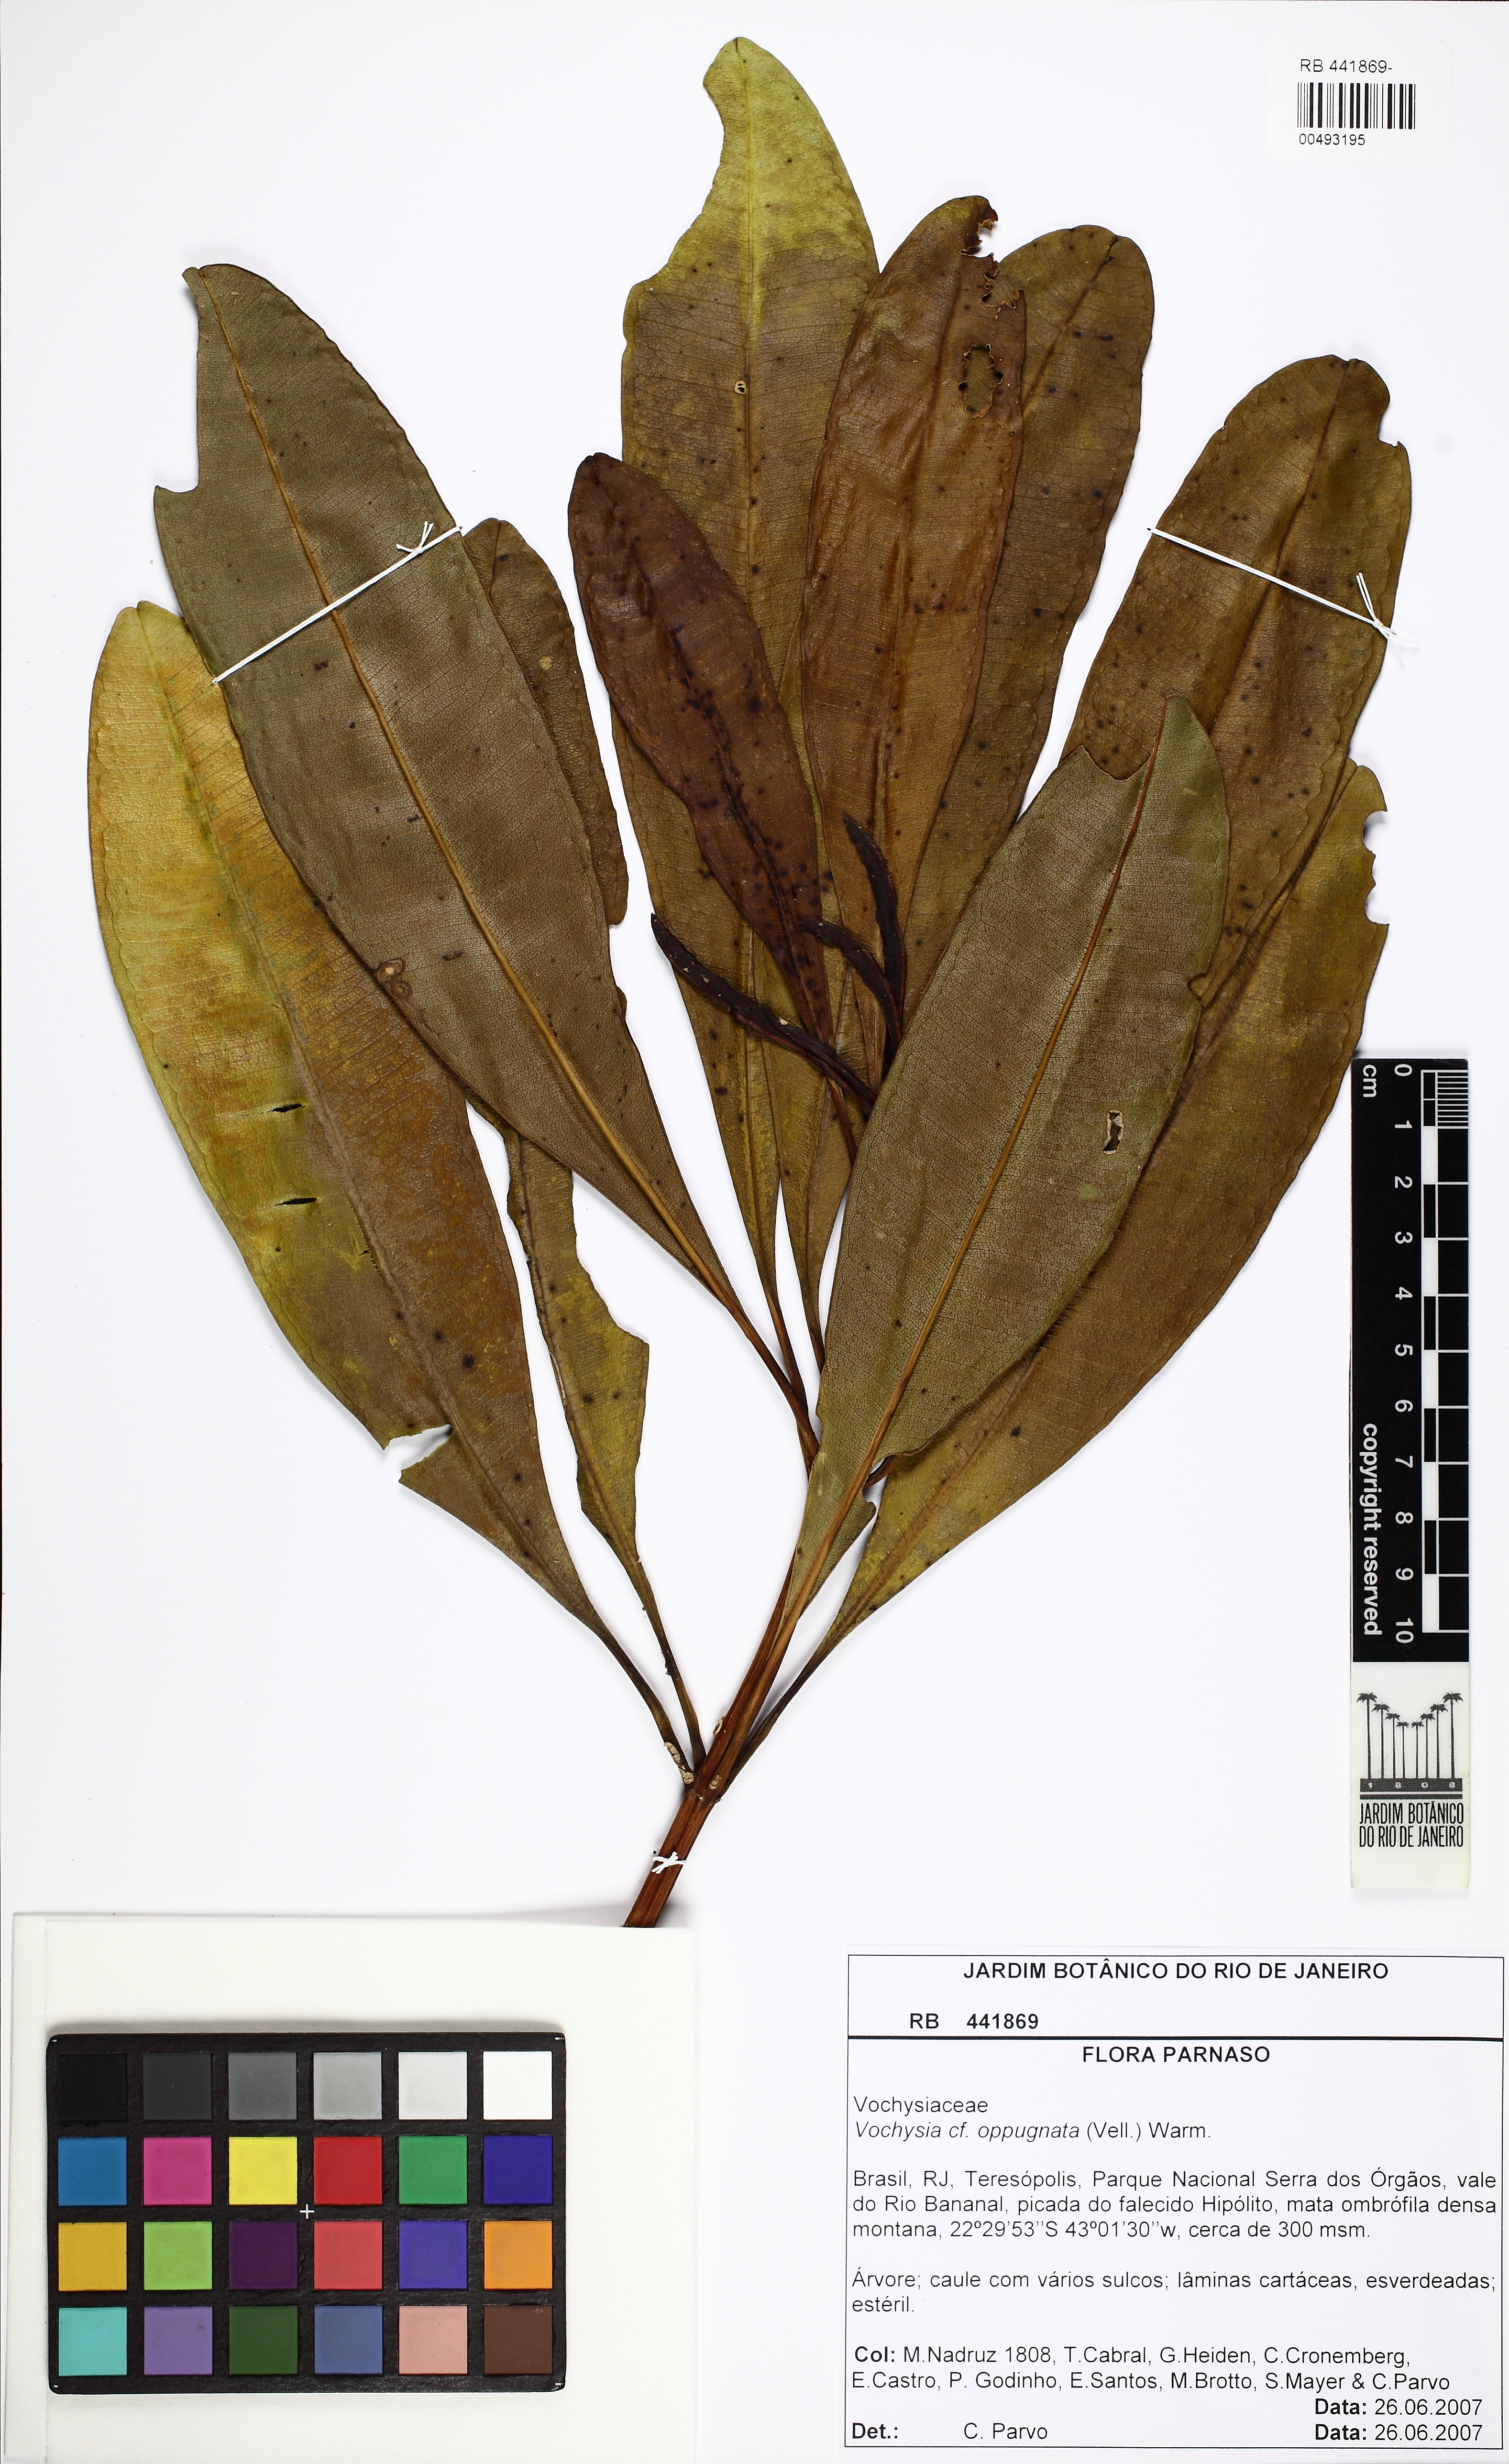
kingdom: Plantae
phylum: Tracheophyta
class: Magnoliopsida
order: Myrtales
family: Vochysiaceae
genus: Vochysia
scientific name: Vochysia oppugnata
